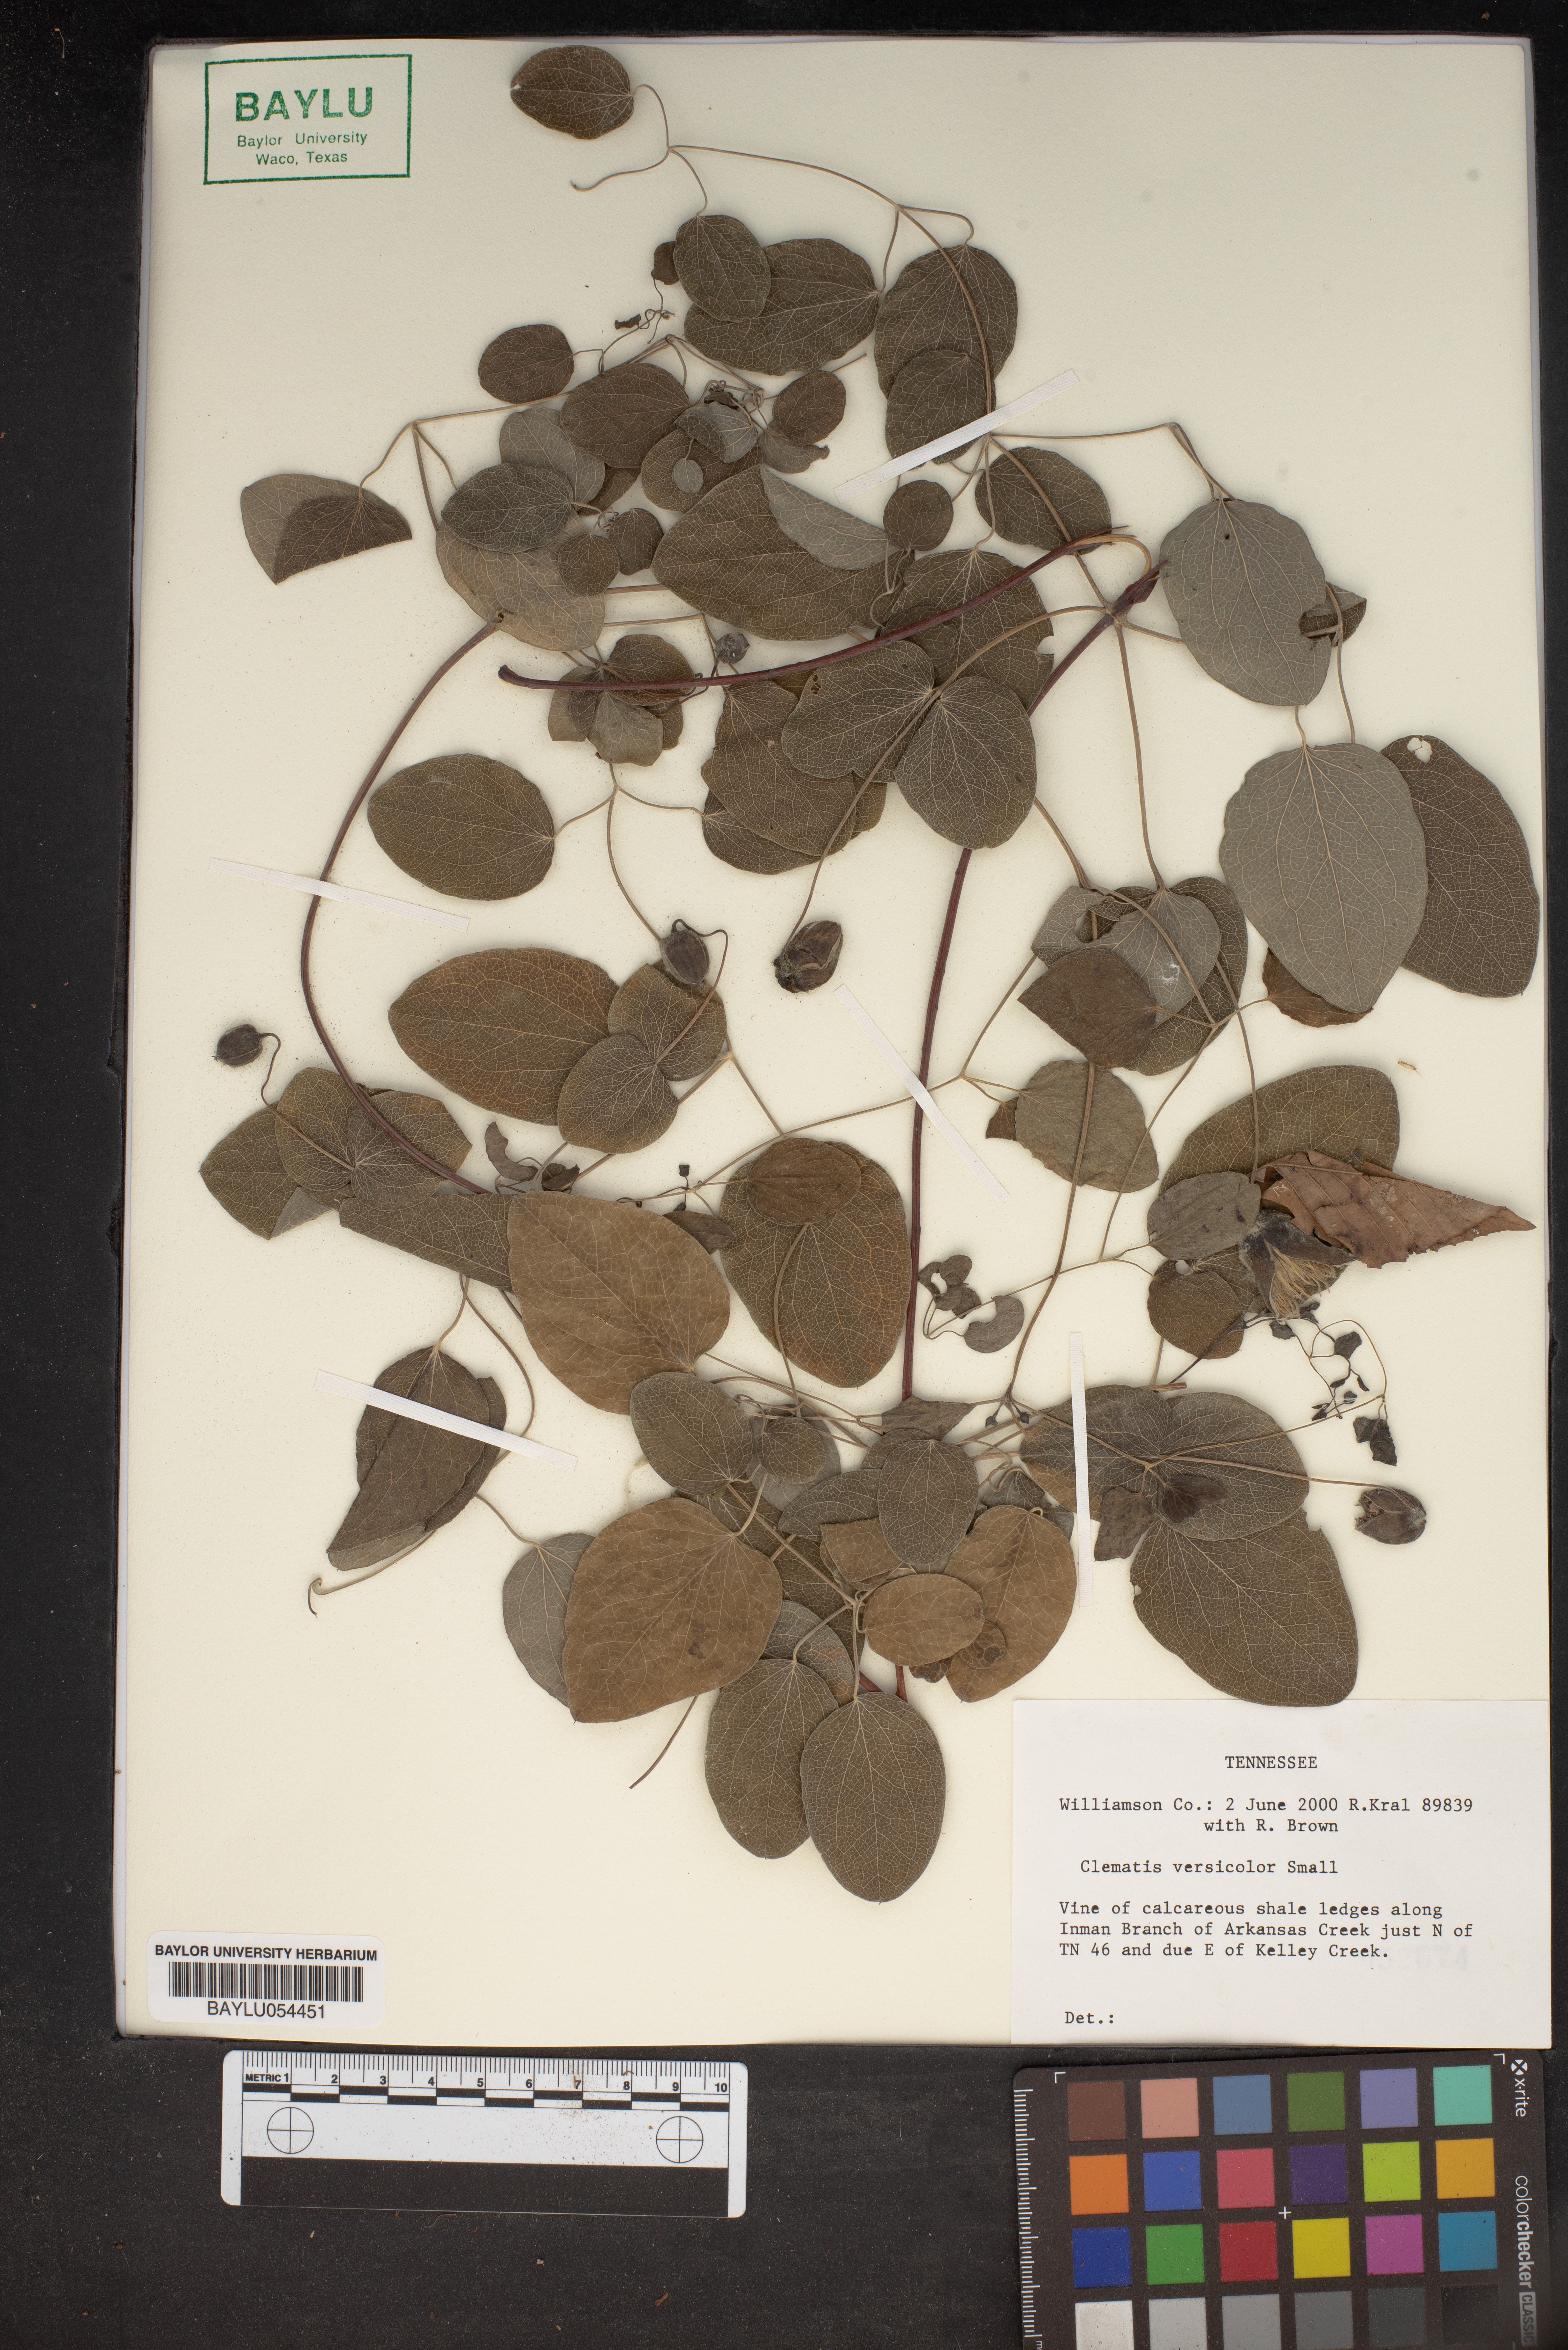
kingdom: Plantae
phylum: Tracheophyta
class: Magnoliopsida
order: Ranunculales
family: Ranunculaceae
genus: Clematis
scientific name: Clematis versicolor
